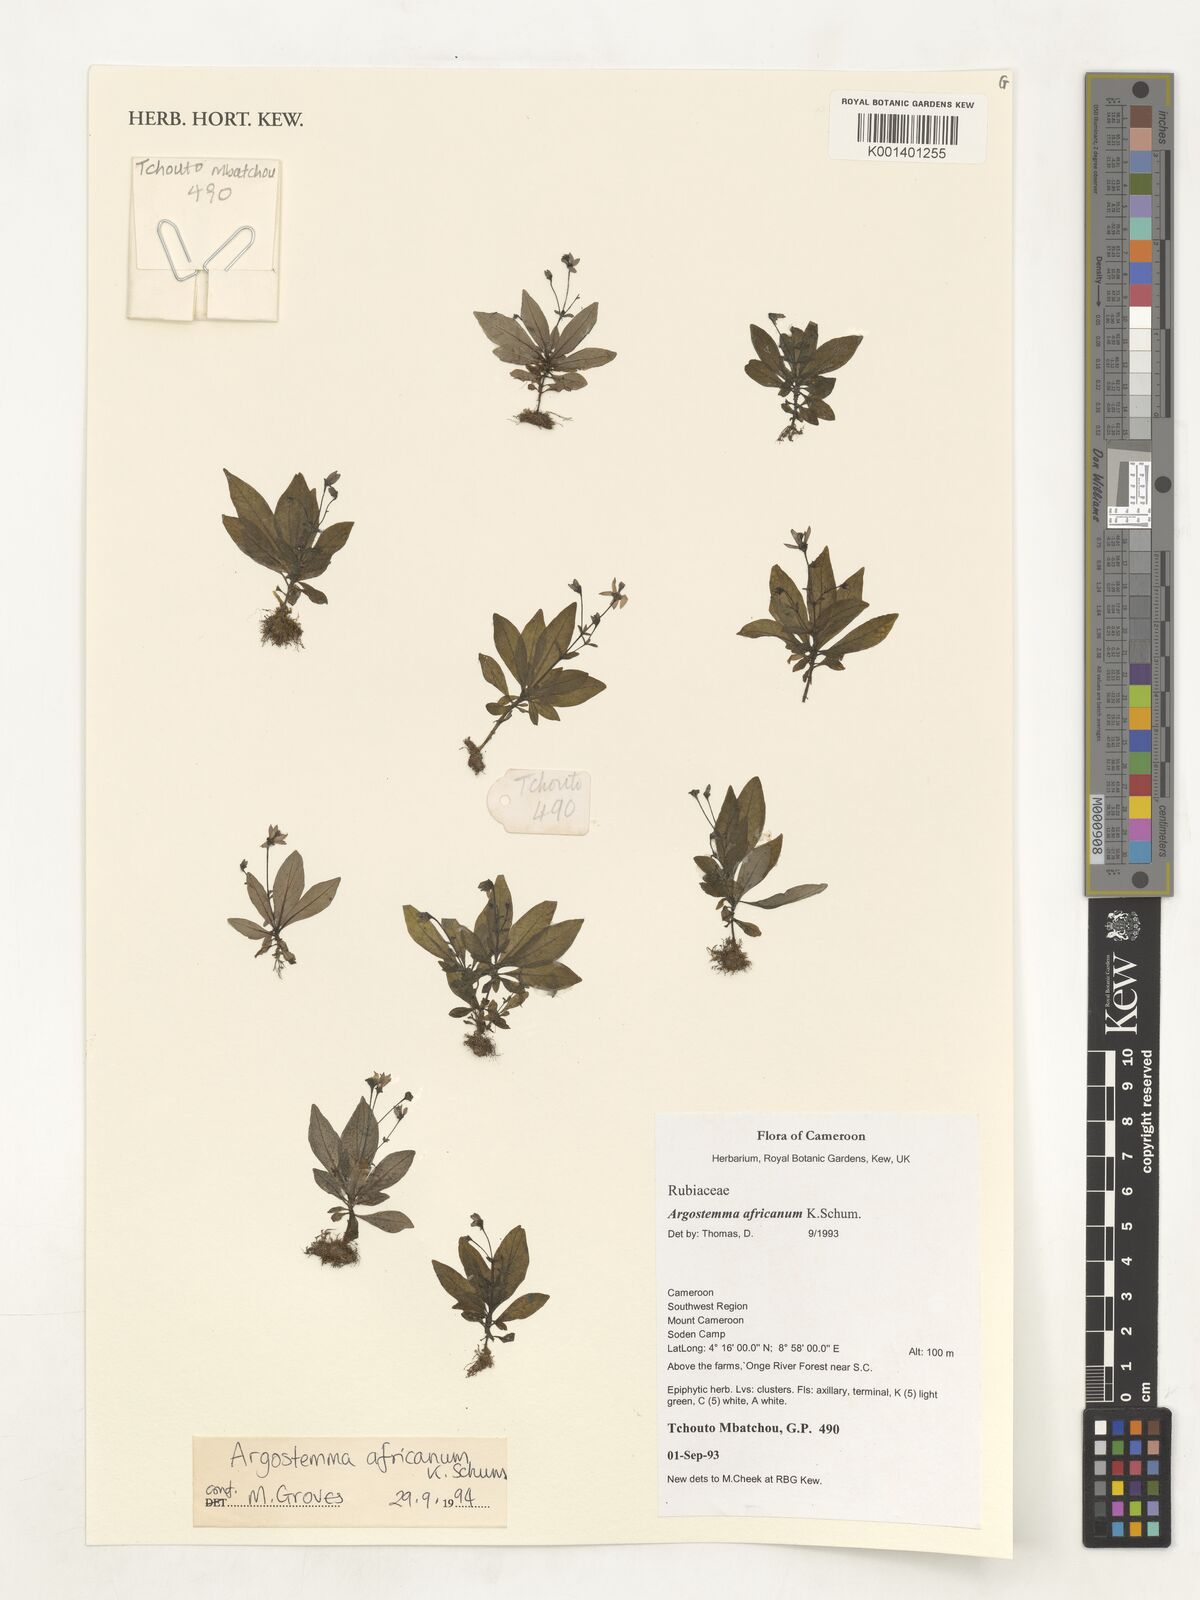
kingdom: Plantae
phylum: Tracheophyta
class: Magnoliopsida
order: Gentianales
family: Rubiaceae
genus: Argostemma
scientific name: Argostemma africanum
